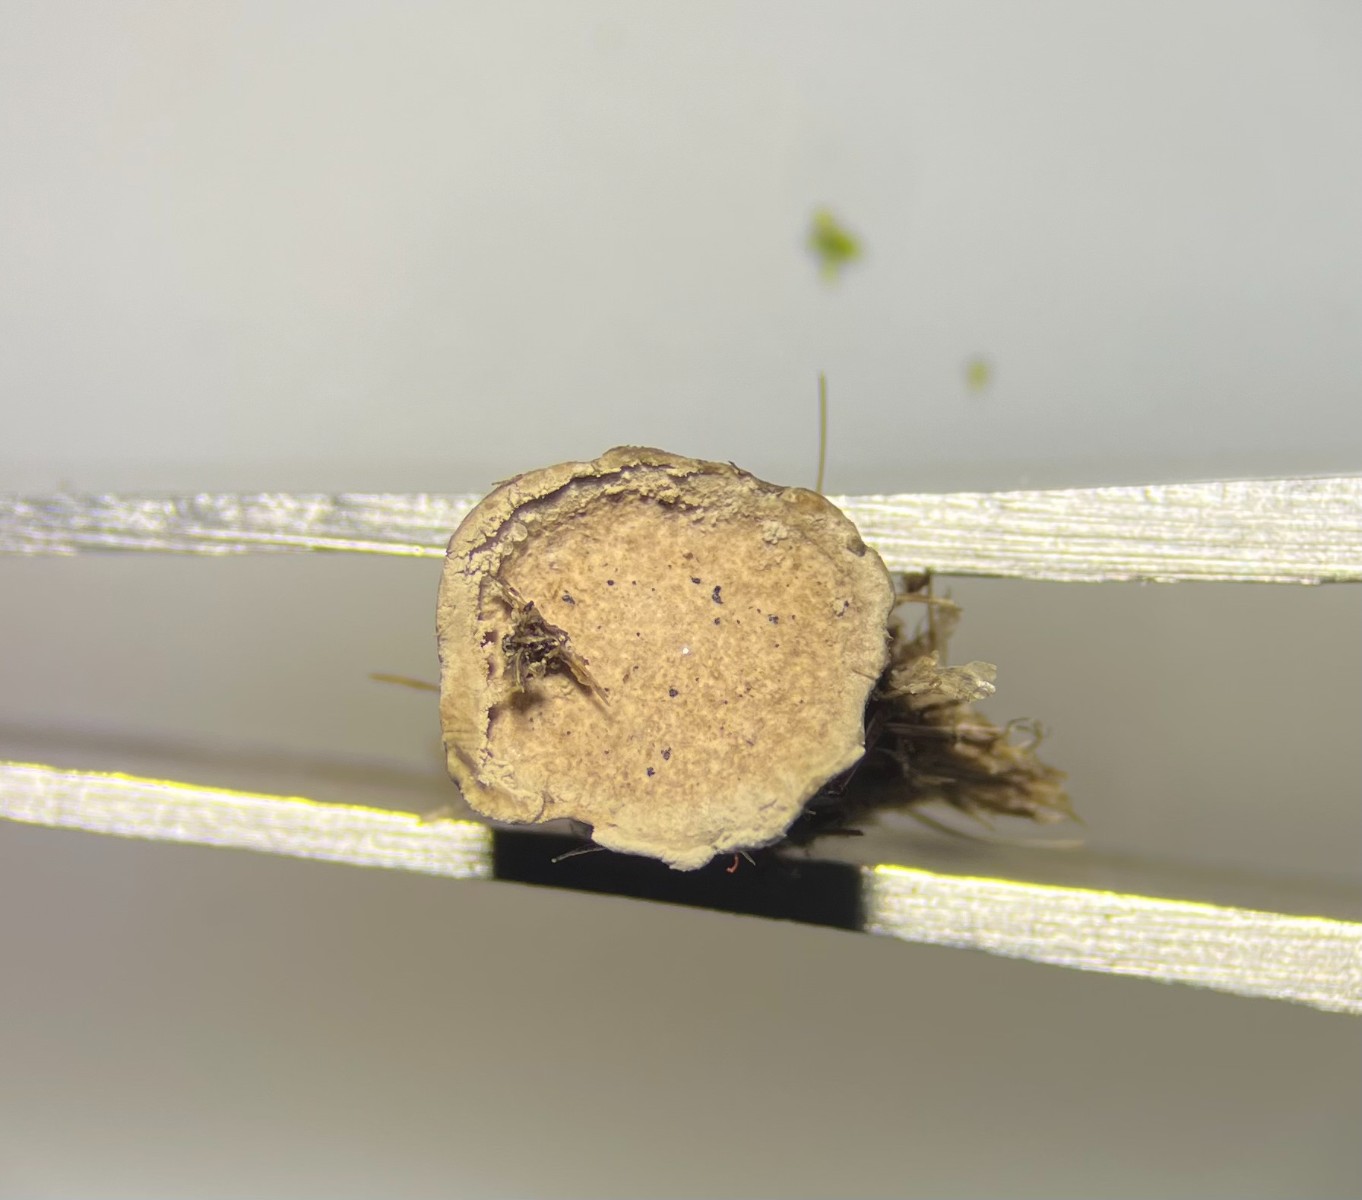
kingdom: Fungi
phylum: Ascomycota
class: Sordariomycetes
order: Xylariales
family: Xylariaceae
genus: Poronia
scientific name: Poronia punctata
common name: stor priksvamp
